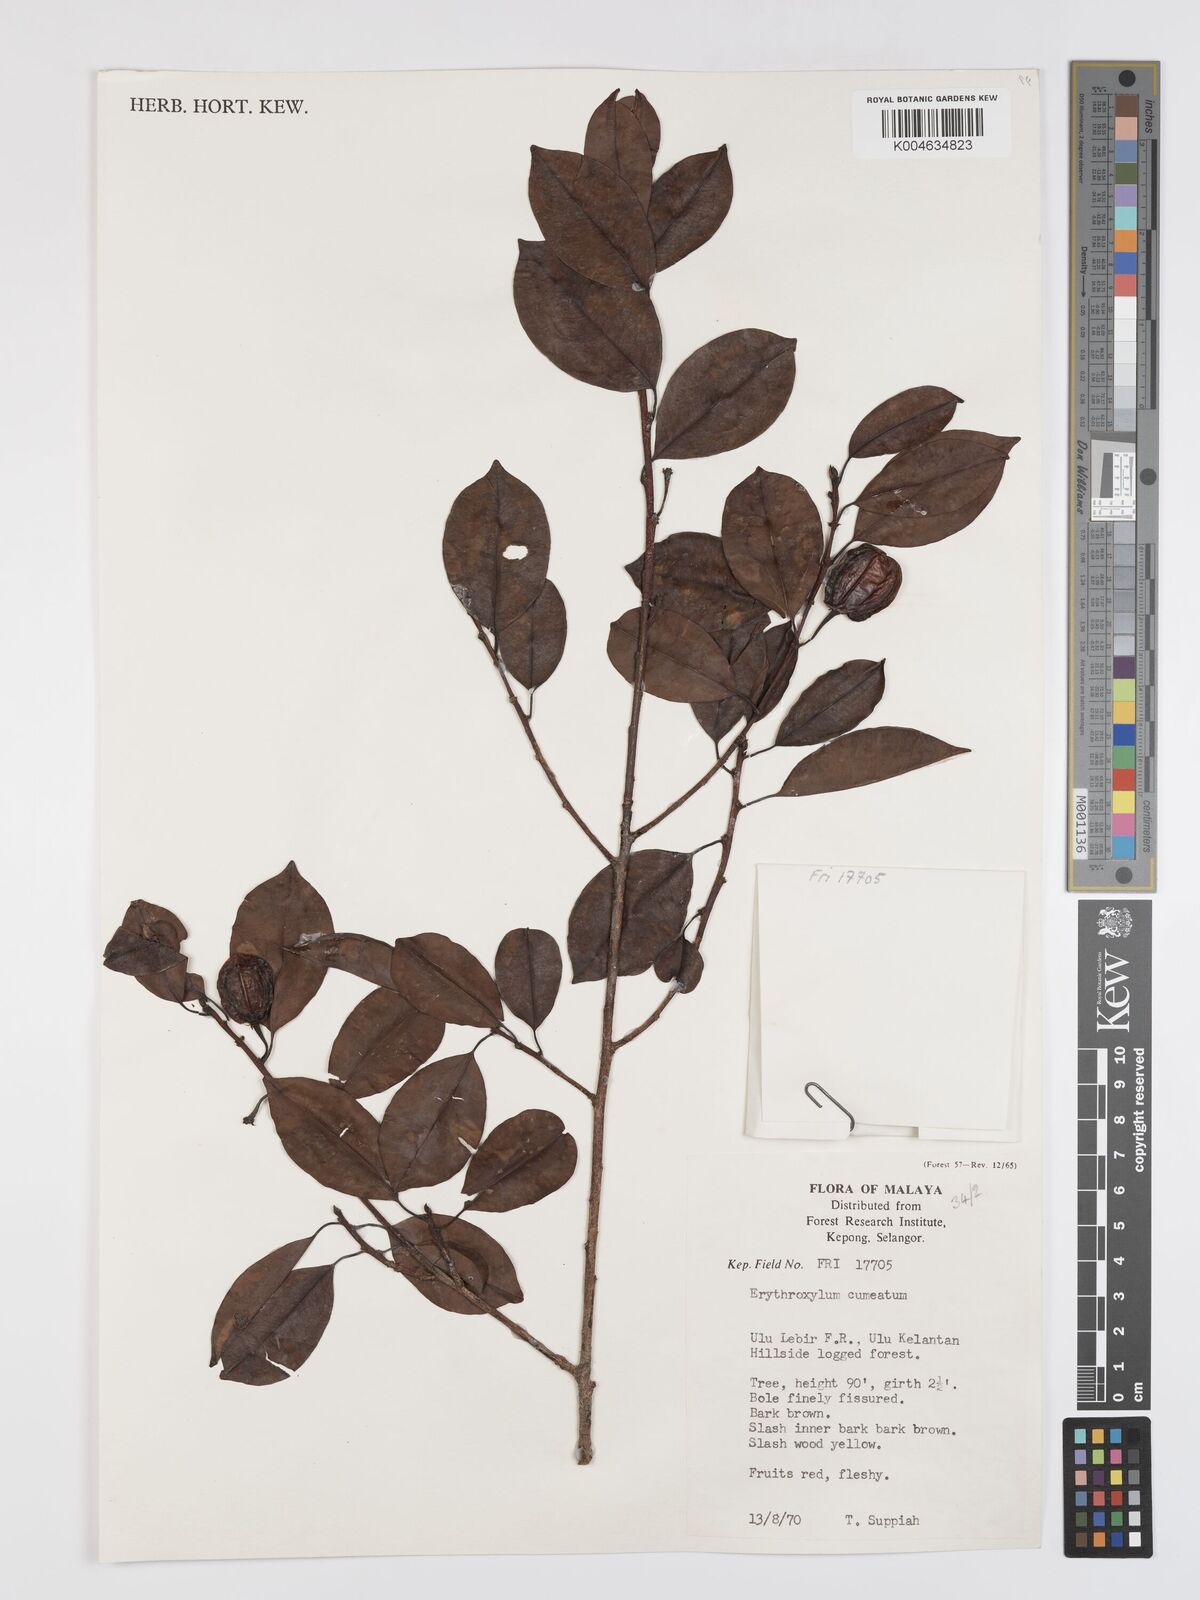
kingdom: Plantae
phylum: Tracheophyta
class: Magnoliopsida
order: Malpighiales
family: Erythroxylaceae
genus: Erythroxylum
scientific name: Erythroxylum cuneatum
